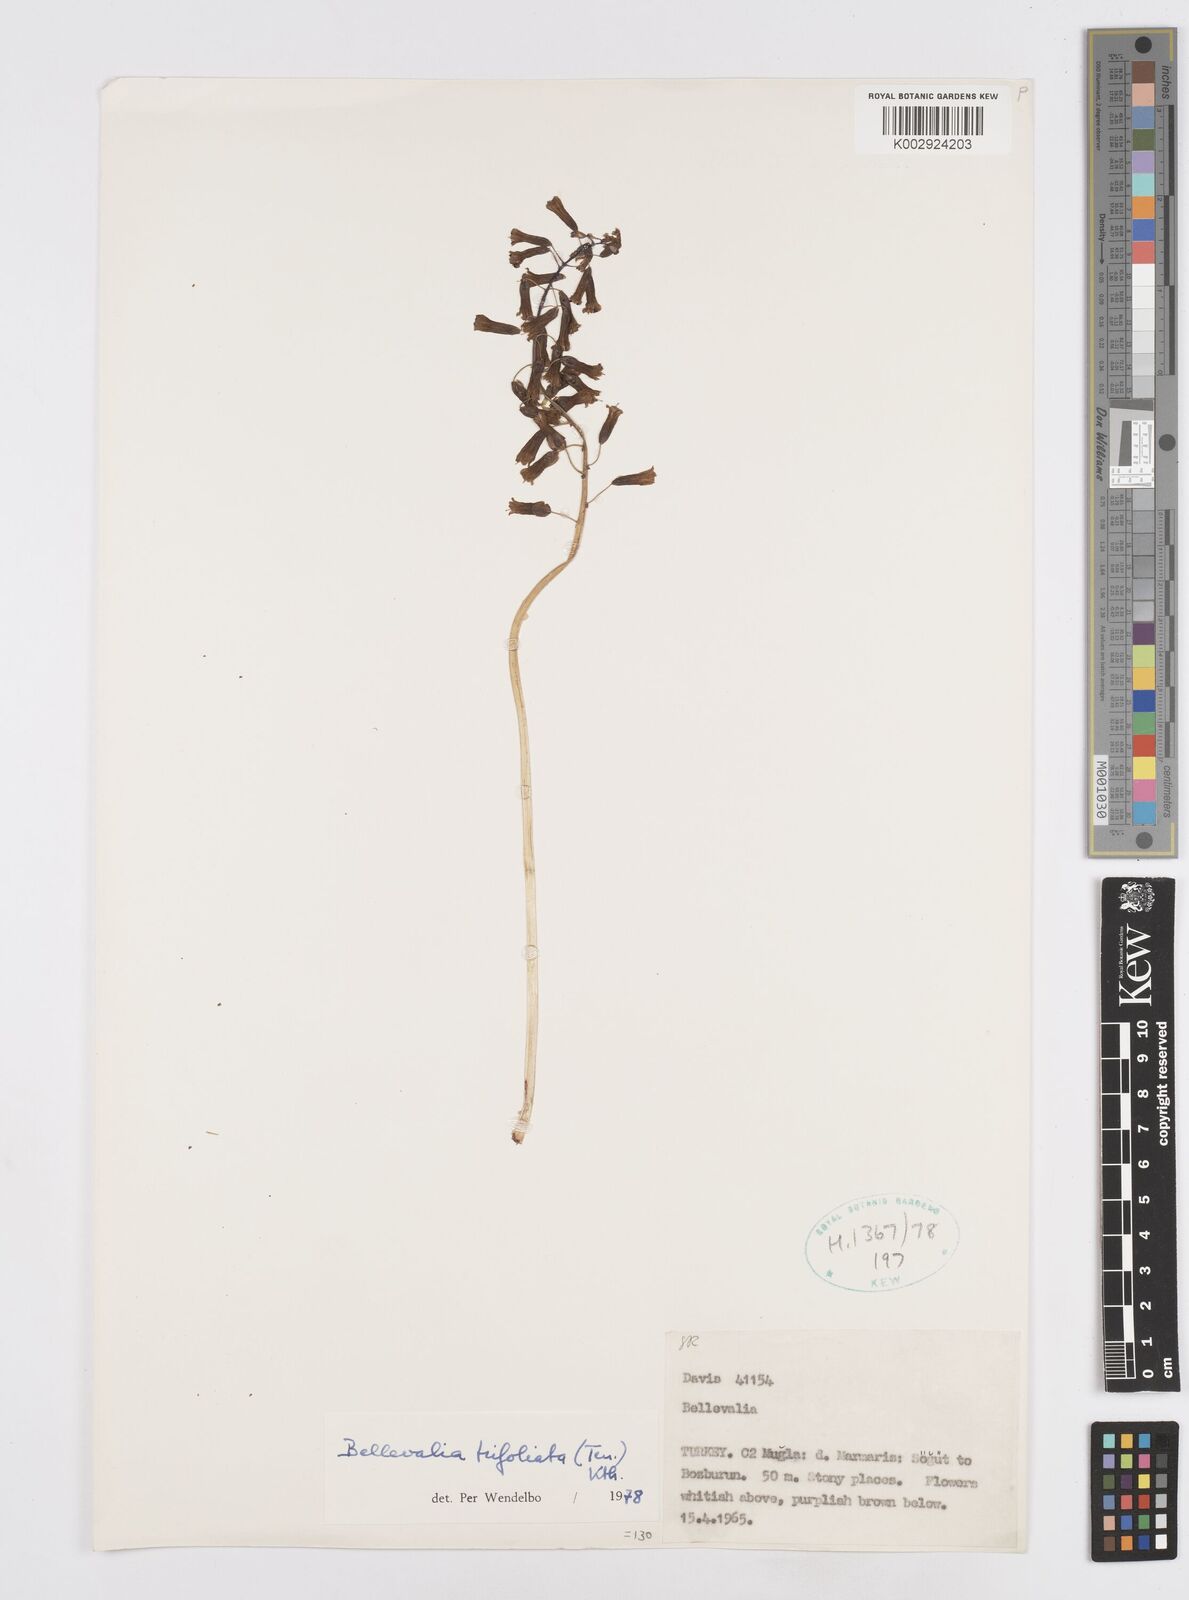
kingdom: Plantae
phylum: Tracheophyta
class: Liliopsida
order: Asparagales
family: Asparagaceae
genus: Bellevalia
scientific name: Bellevalia trifoliata
